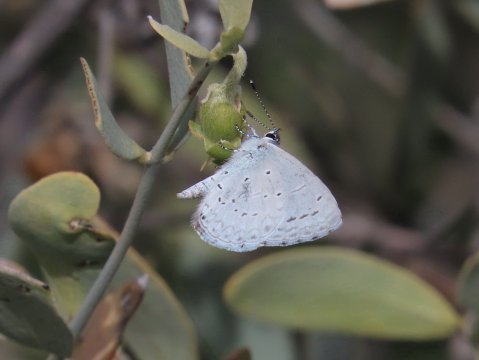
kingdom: Animalia
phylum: Arthropoda
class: Insecta
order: Lepidoptera
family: Lycaenidae
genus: Celastrina
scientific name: Celastrina ladon
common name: Echo Azure
